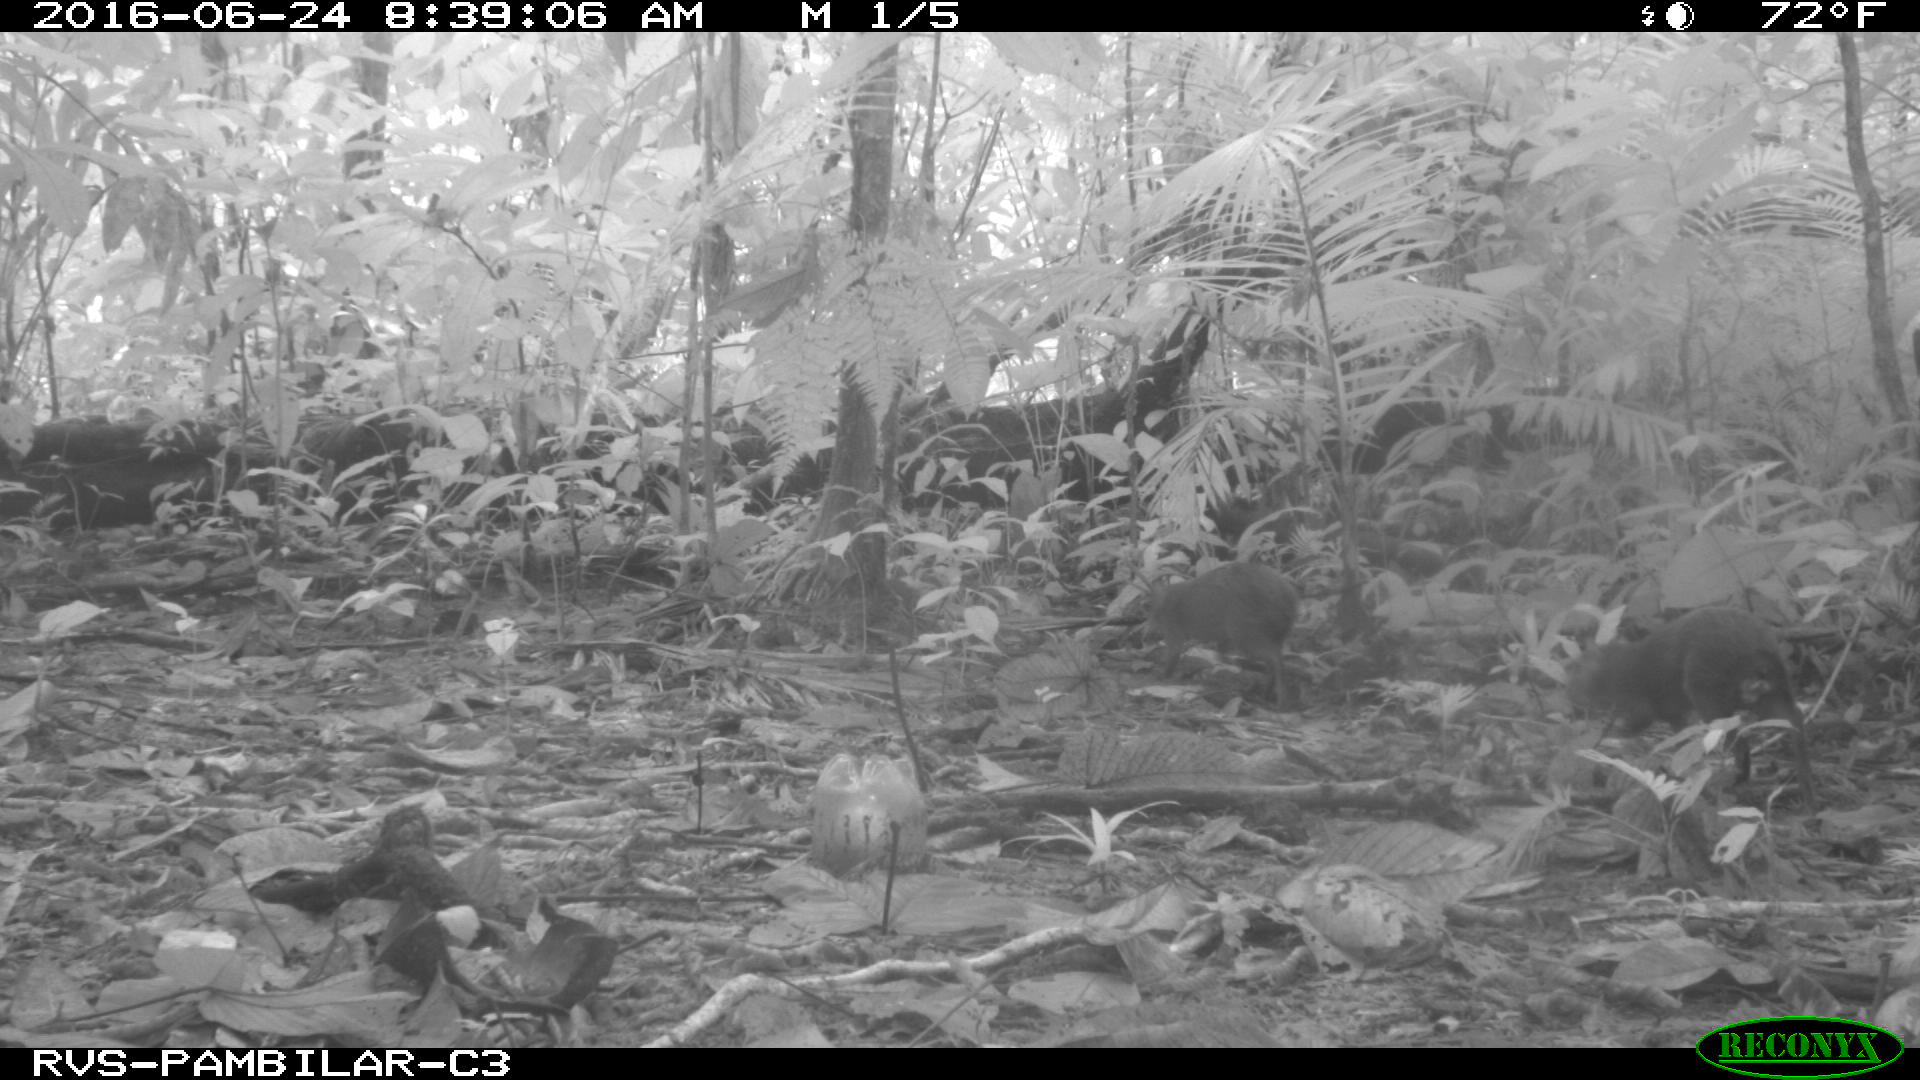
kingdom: Animalia
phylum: Chordata
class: Mammalia
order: Rodentia
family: Dasyproctidae
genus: Dasyprocta
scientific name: Dasyprocta punctata
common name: Central american agouti
